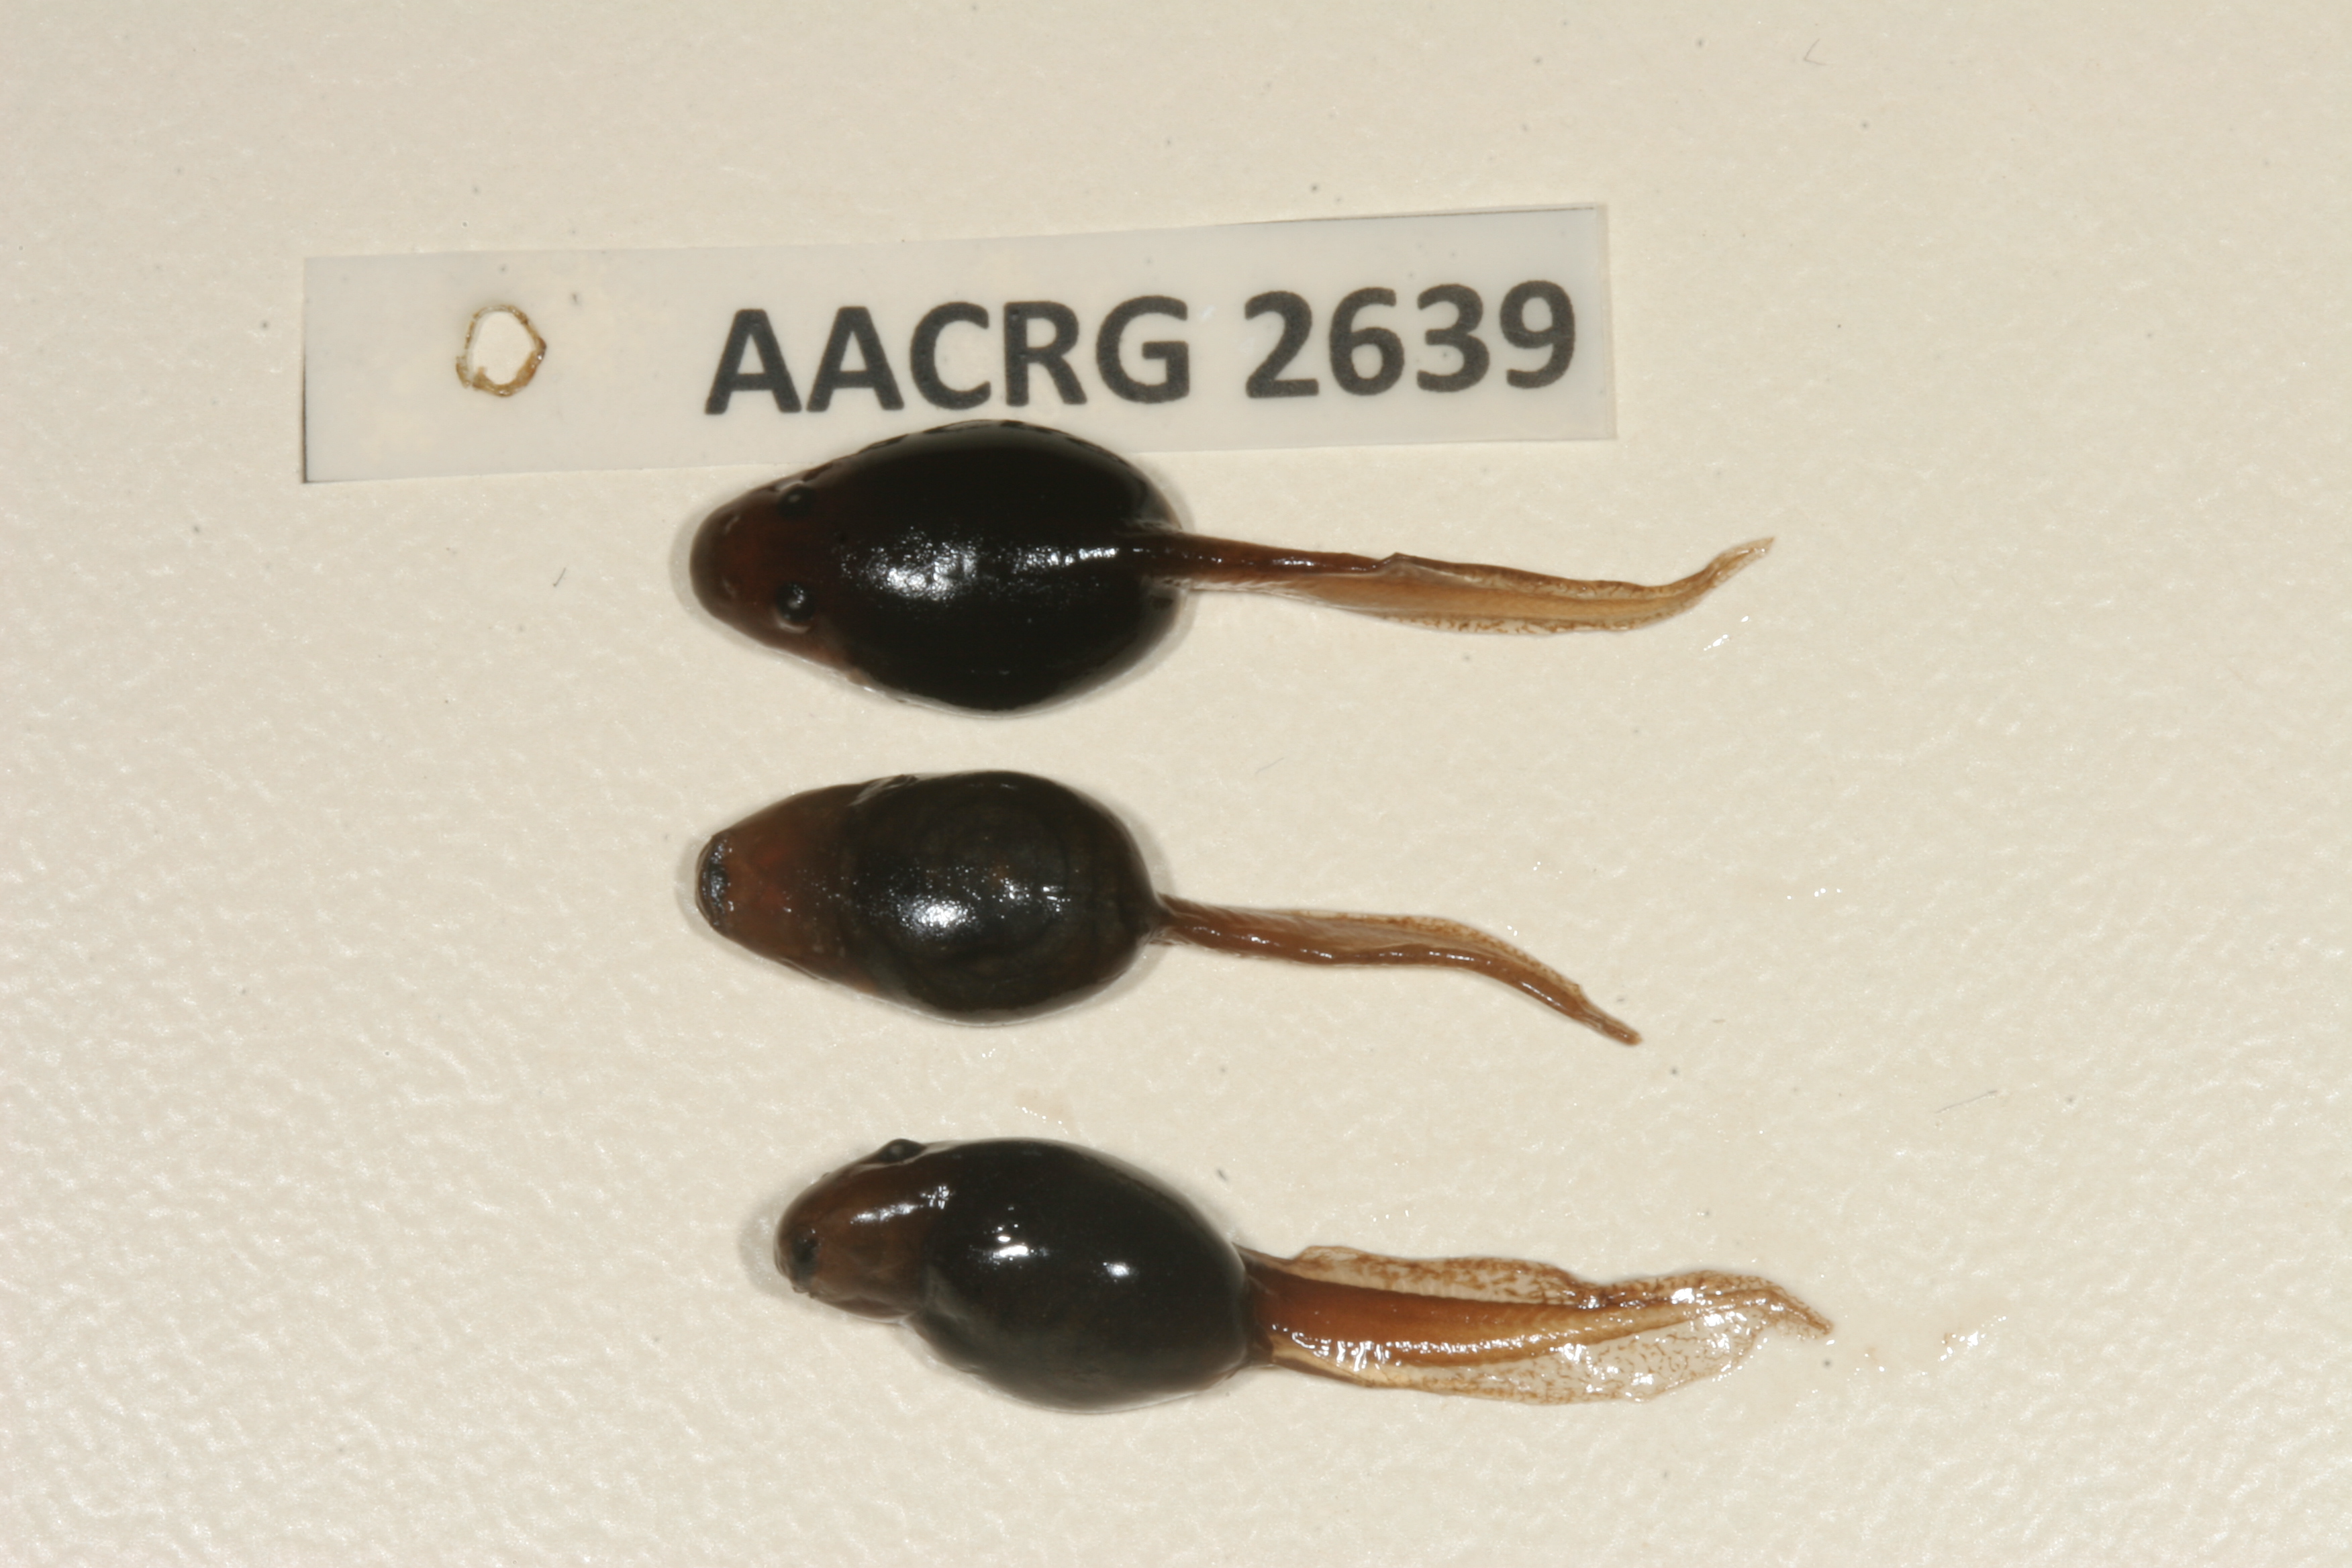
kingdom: Animalia
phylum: Chordata
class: Amphibia
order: Anura
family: Pyxicephalidae
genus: Strongylopus
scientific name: Strongylopus bonaespei
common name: Banded stream frog
